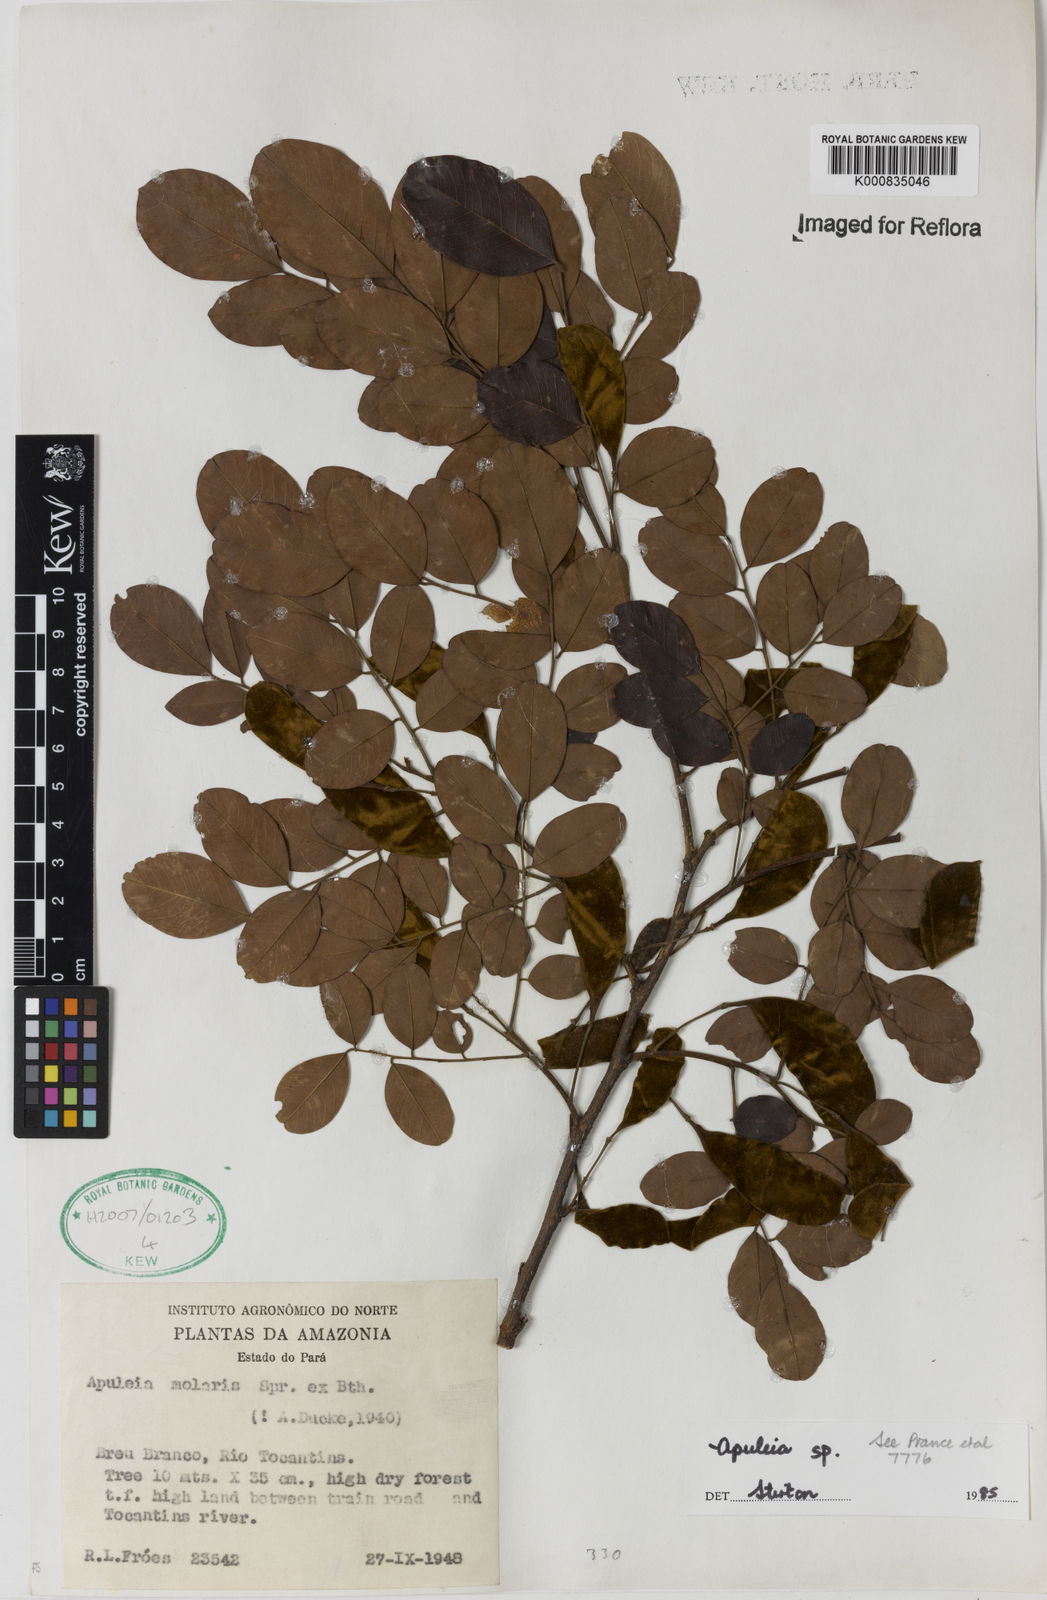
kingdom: Plantae
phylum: Tracheophyta
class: Magnoliopsida
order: Fabales
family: Fabaceae
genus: Apuleia
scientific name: Apuleia leiocarpa
